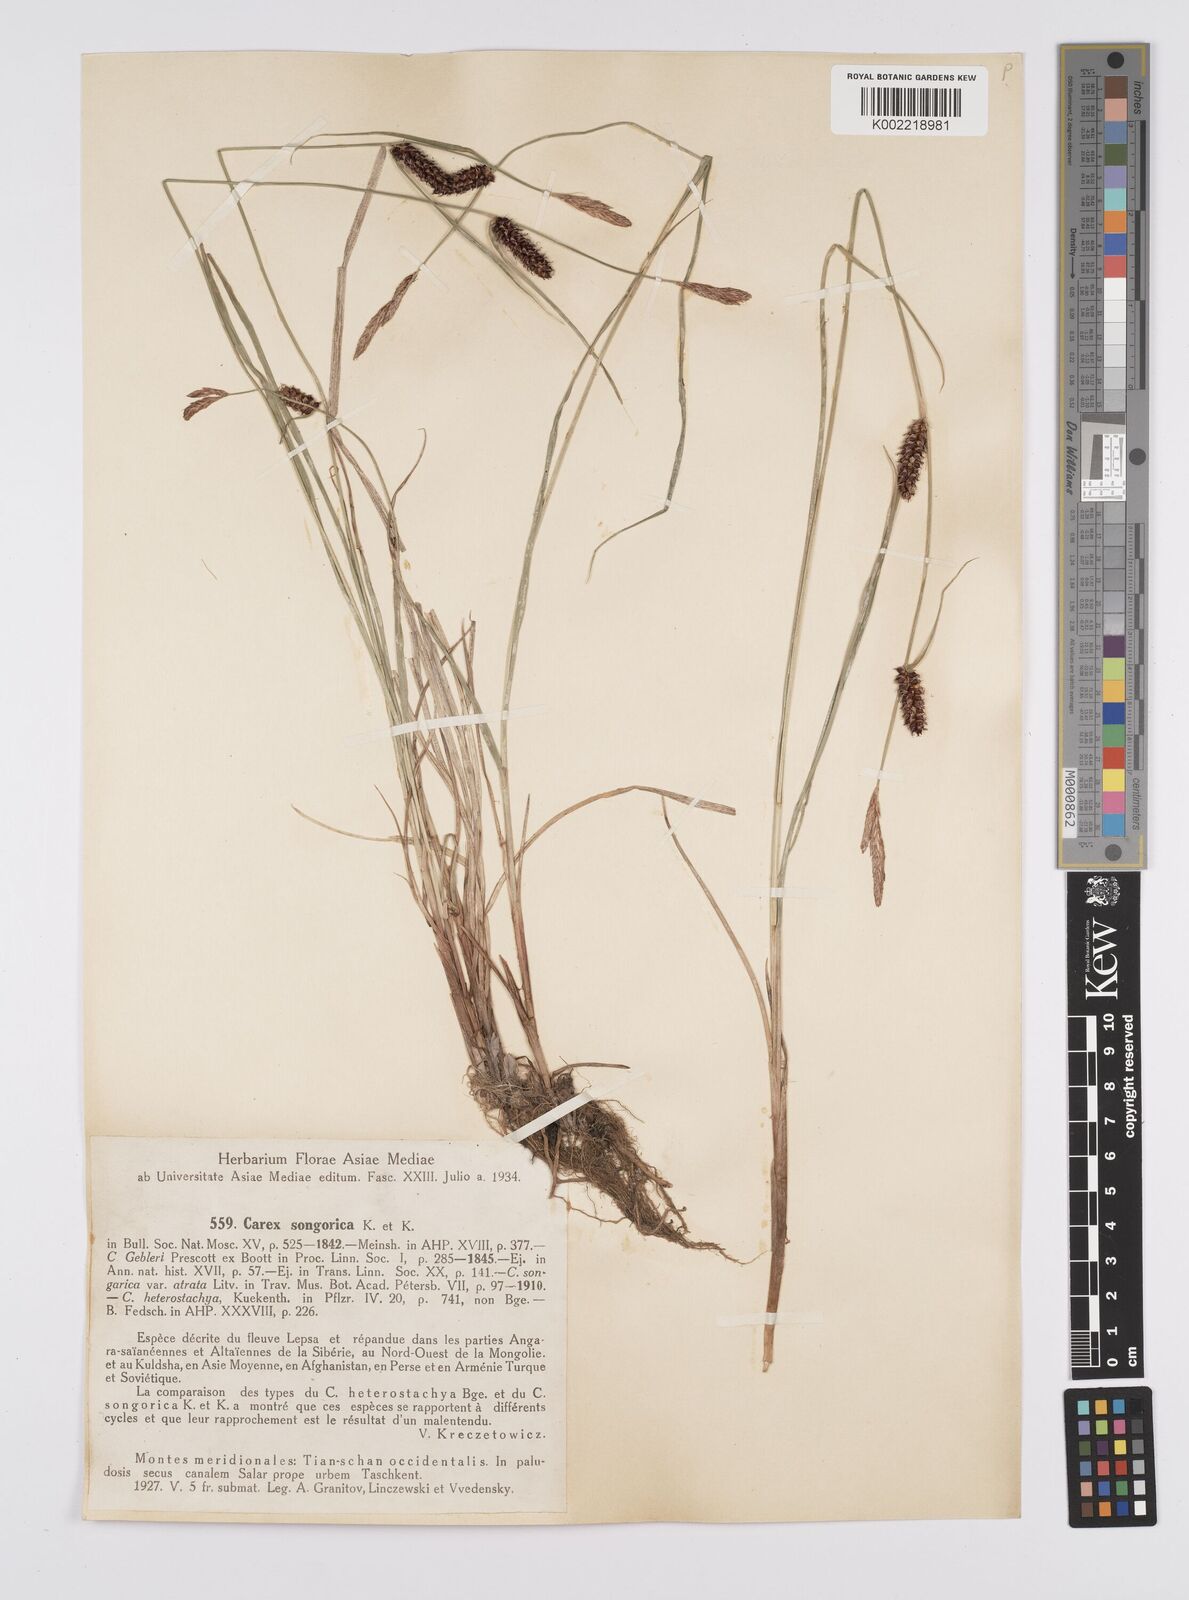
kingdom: Plantae
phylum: Tracheophyta
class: Liliopsida
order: Poales
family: Cyperaceae
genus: Carex
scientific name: Carex heterostachya
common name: Different-spike sedge
